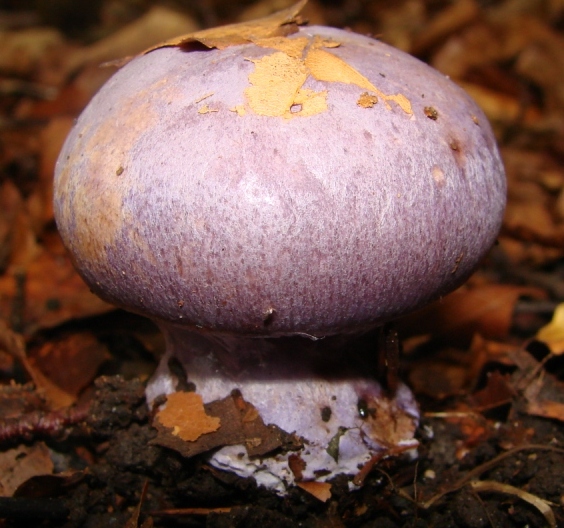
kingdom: Fungi
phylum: Basidiomycota
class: Agaricomycetes
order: Agaricales
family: Cortinariaceae
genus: Calonarius
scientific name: Calonarius sodagnitus
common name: violblå slørhat
